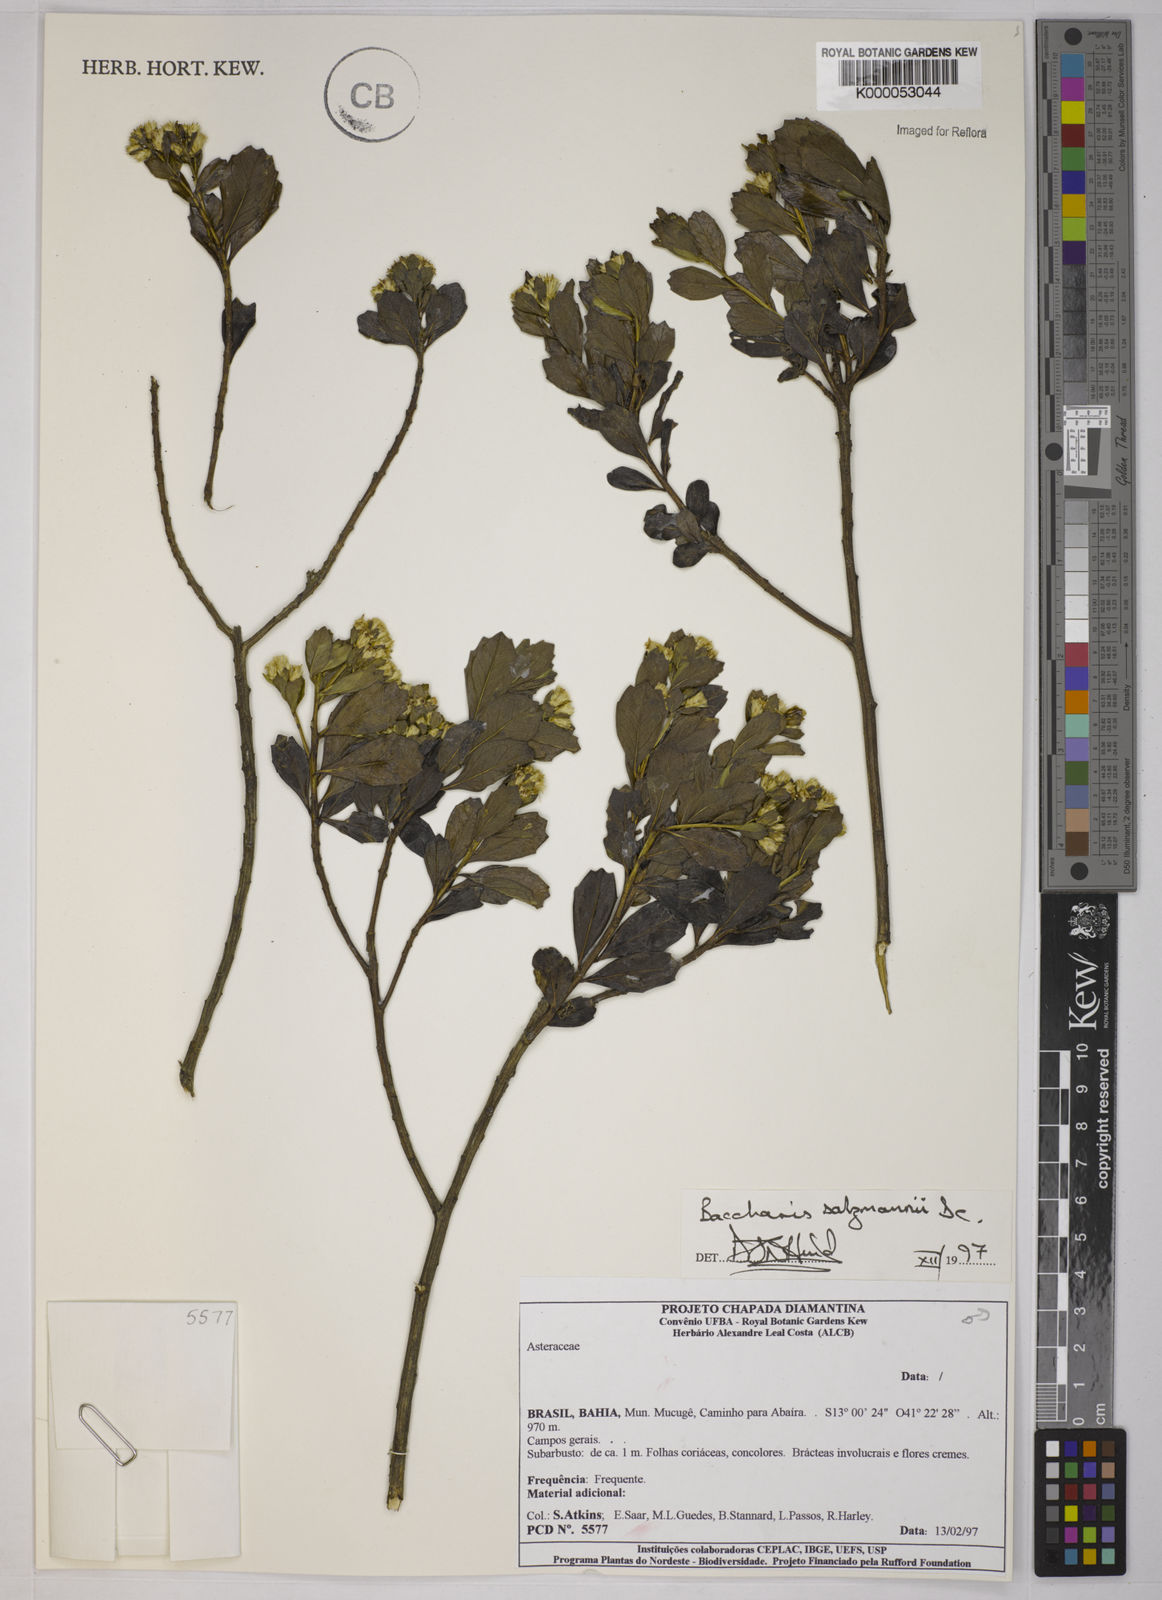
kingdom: Plantae
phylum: Tracheophyta
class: Magnoliopsida
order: Asterales
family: Asteraceae
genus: Baccharis
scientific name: Baccharis retusa
